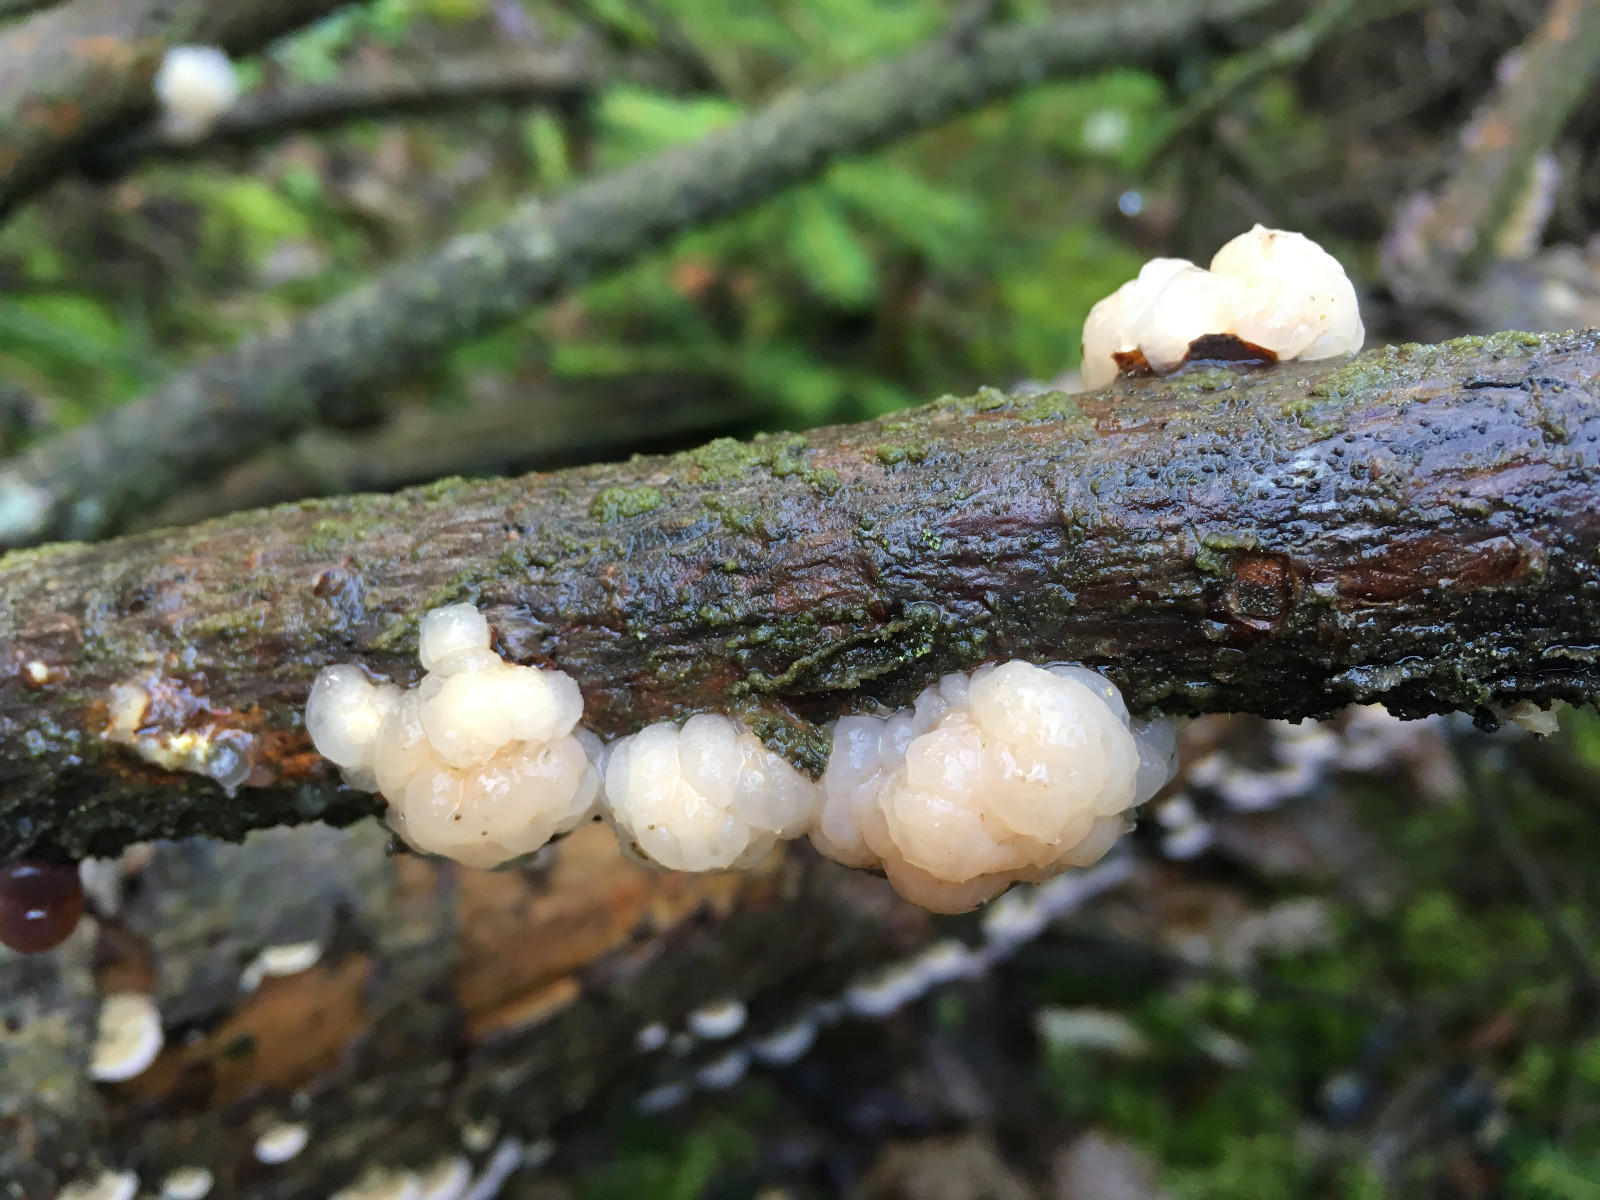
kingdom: Fungi
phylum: Basidiomycota
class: Tremellomycetes
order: Tremellales
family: Naemateliaceae
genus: Naematelia
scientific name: Naematelia encephala
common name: fyrre-bævresvamp
